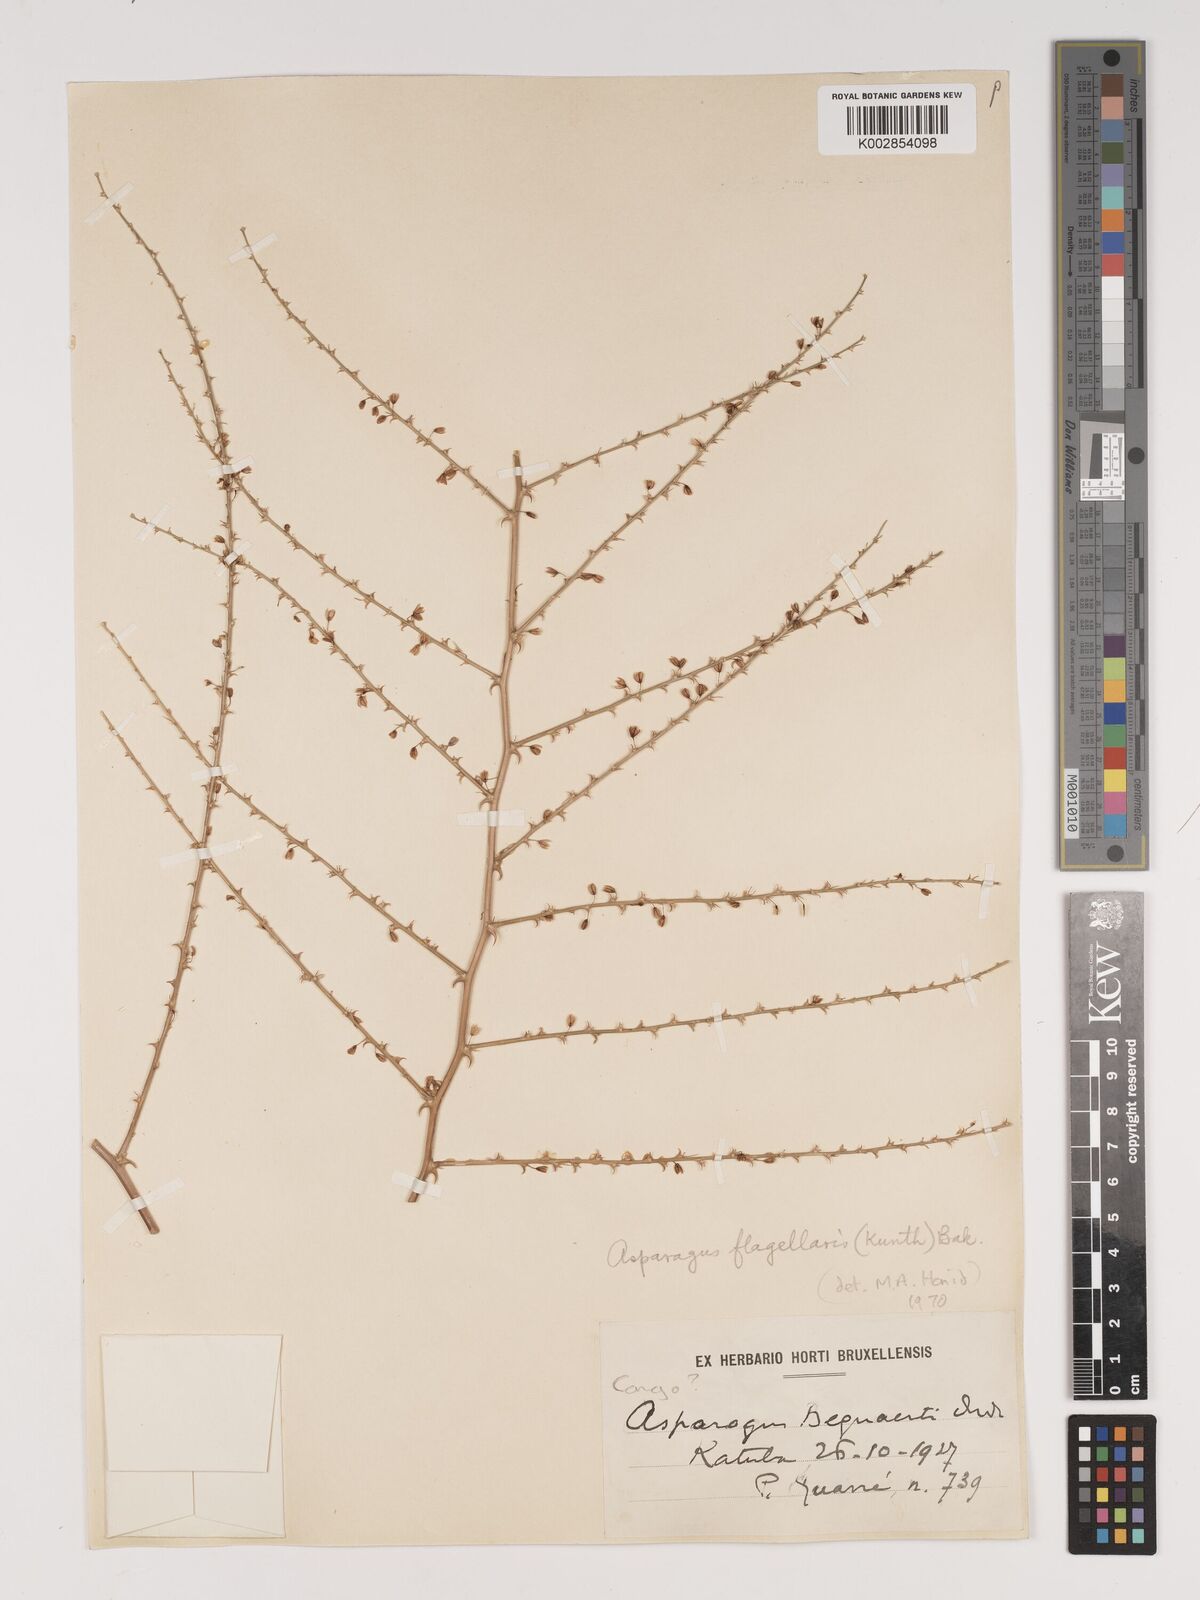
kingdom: Plantae
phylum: Tracheophyta
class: Liliopsida
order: Asparagales
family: Asparagaceae
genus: Asparagus
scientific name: Asparagus flagellaris
